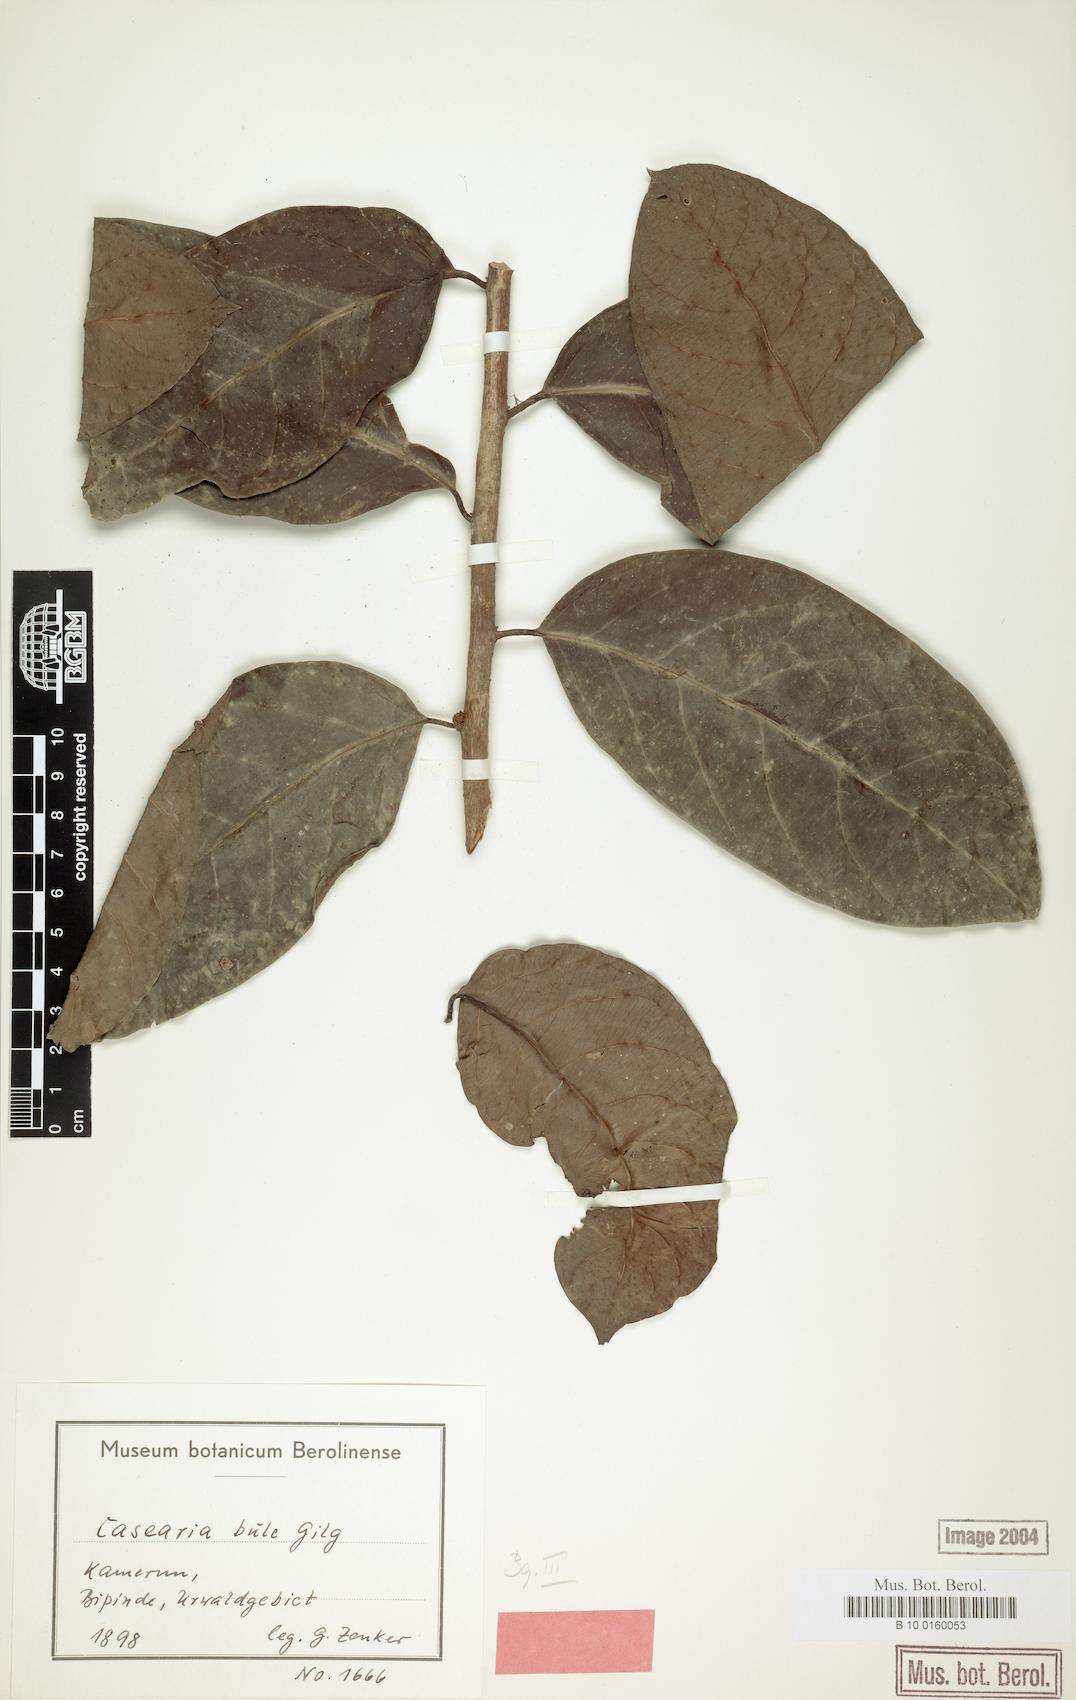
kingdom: Plantae
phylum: Tracheophyta
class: Magnoliopsida
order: Malpighiales
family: Salicaceae
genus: Casearia
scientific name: Casearia barteri
